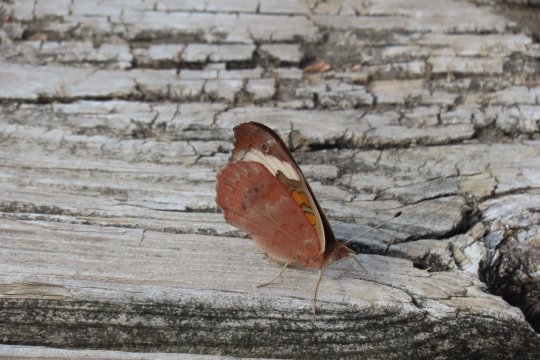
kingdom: Animalia
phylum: Arthropoda
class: Insecta
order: Lepidoptera
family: Nymphalidae
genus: Junonia
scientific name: Junonia coenia
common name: Common Buckeye
